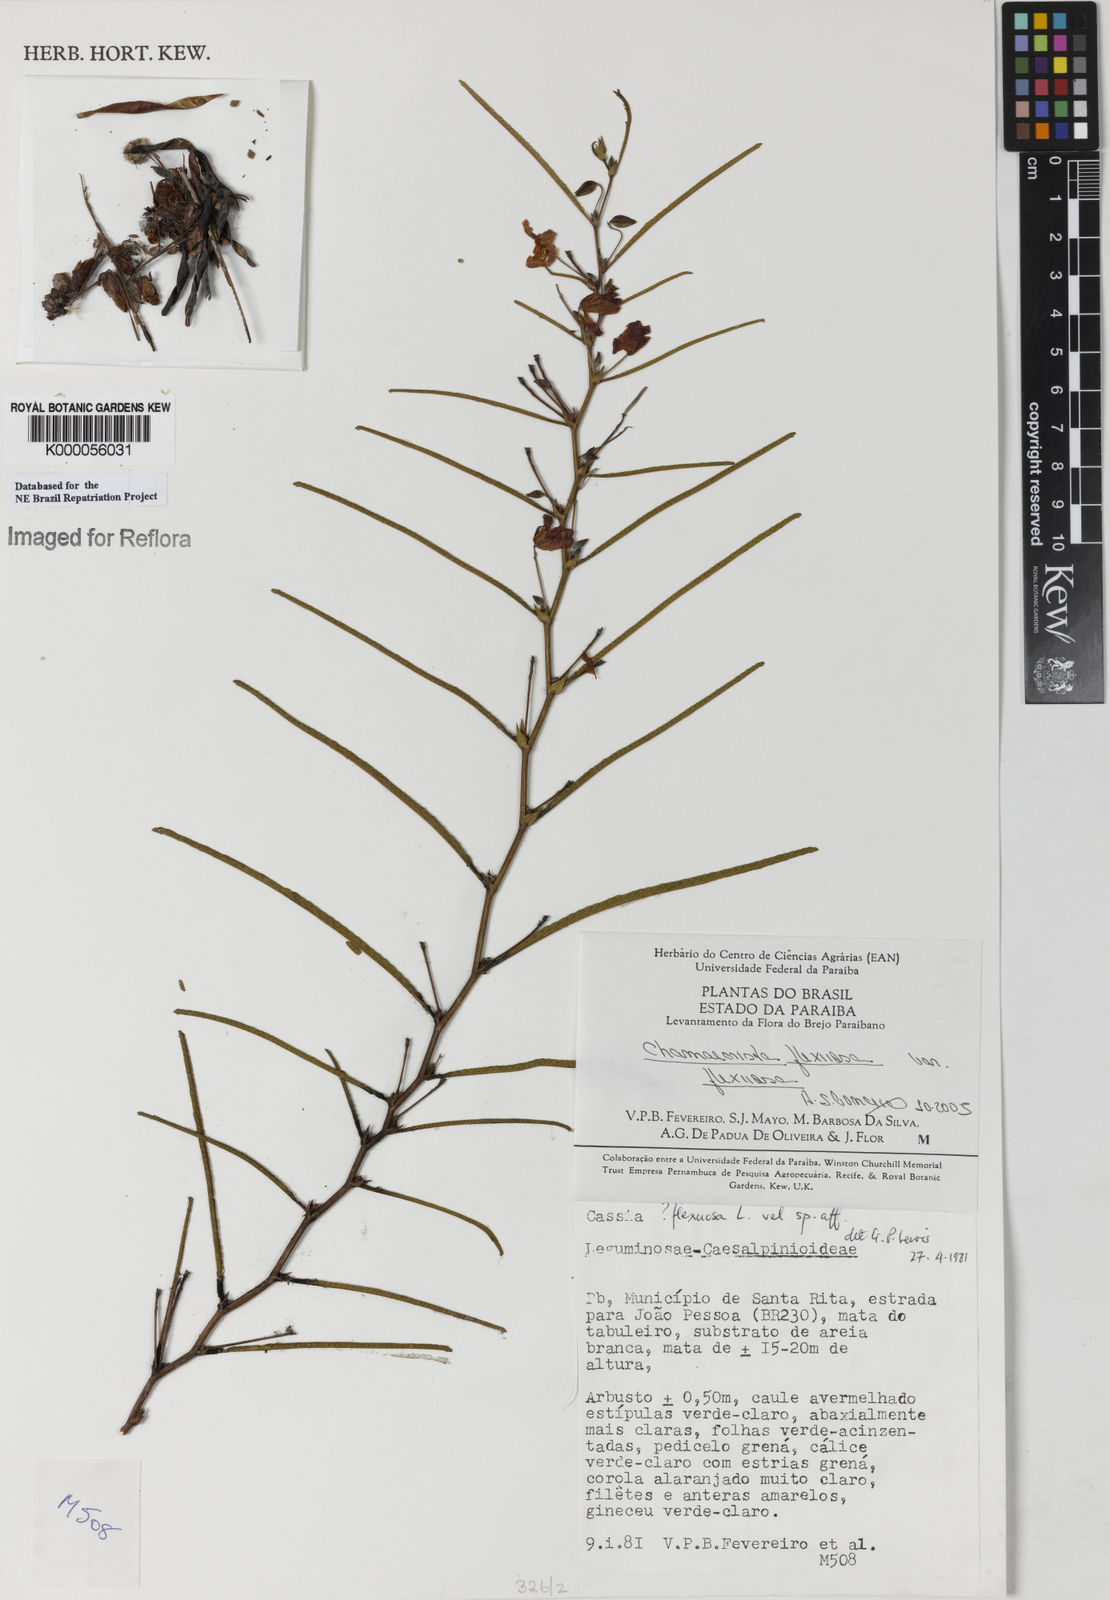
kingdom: Plantae
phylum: Tracheophyta
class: Magnoliopsida
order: Fabales
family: Fabaceae
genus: Chamaecrista
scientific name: Chamaecrista flexuosa
